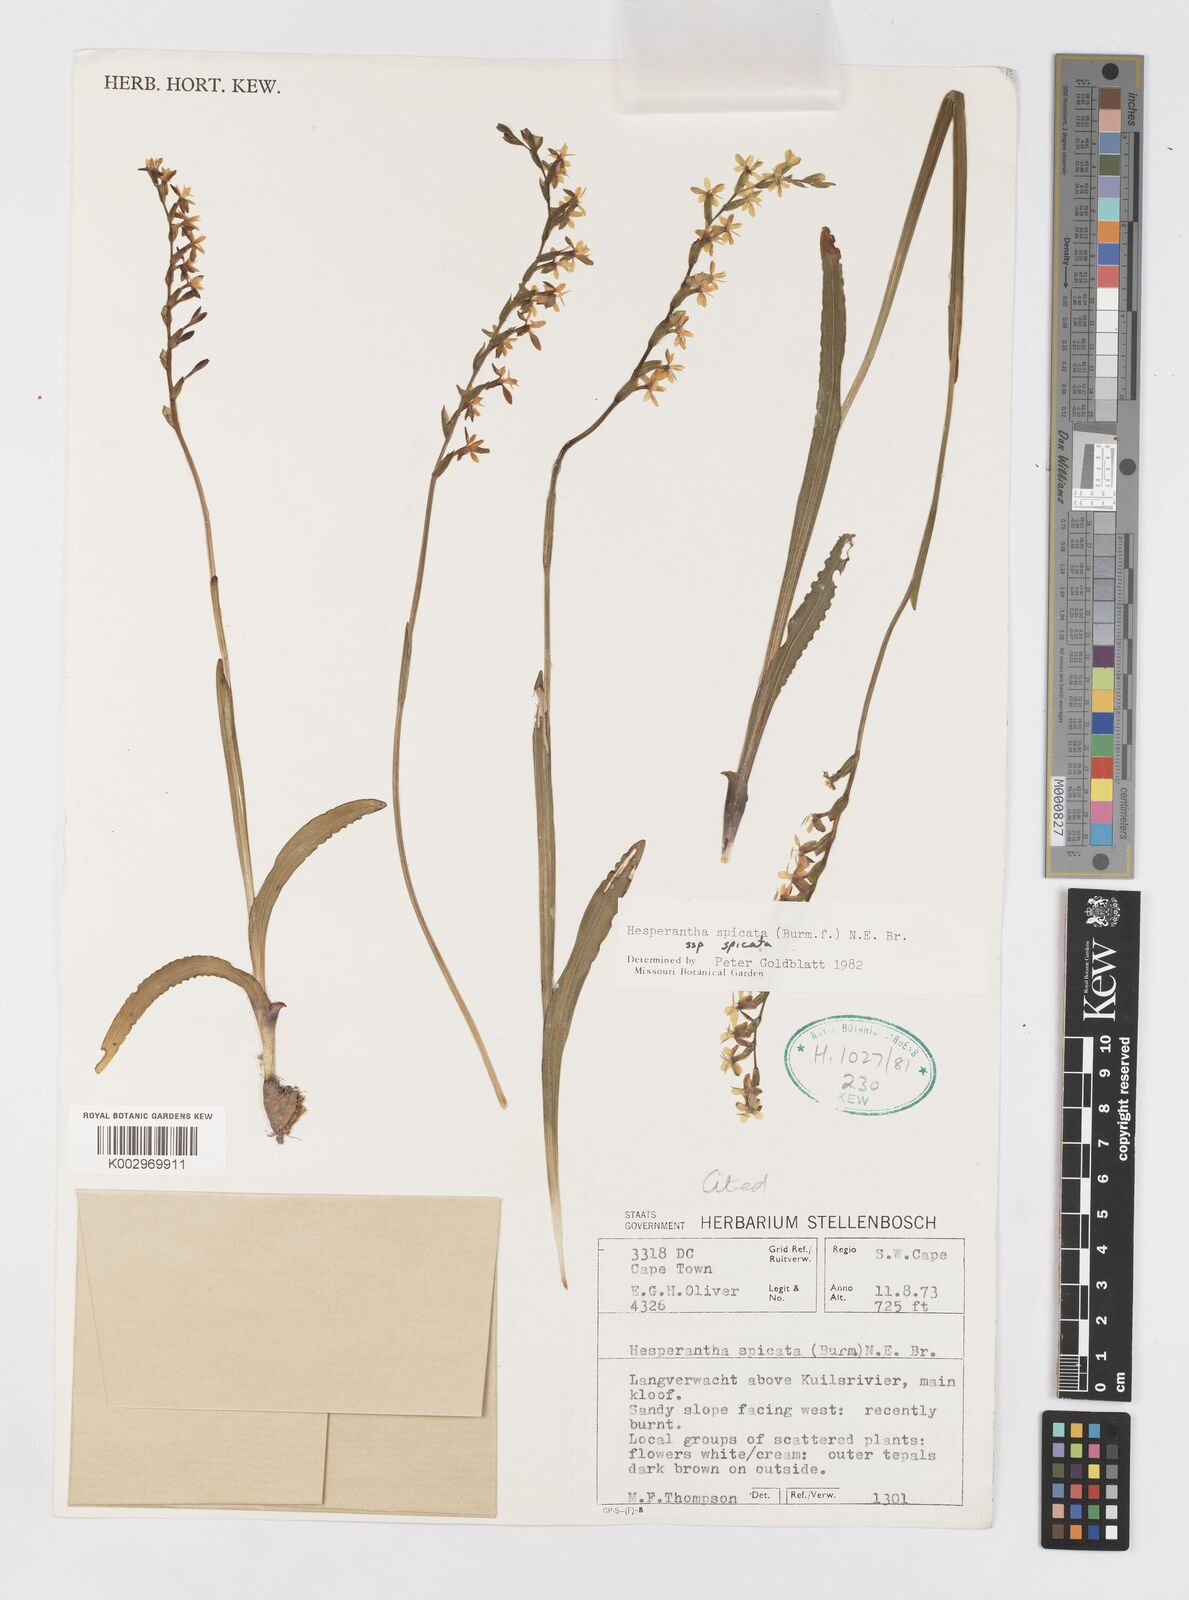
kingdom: Plantae
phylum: Tracheophyta
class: Liliopsida
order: Asparagales
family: Iridaceae
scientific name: Iridaceae
